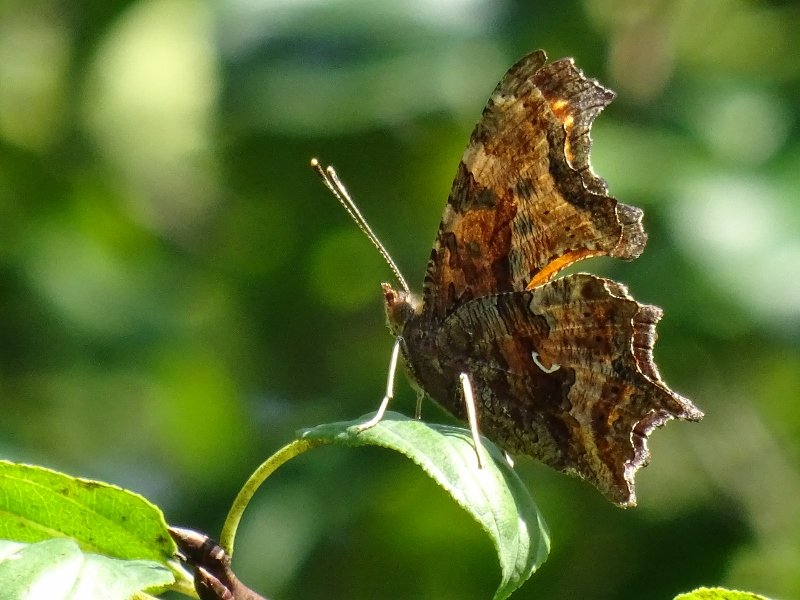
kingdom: Animalia
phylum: Arthropoda
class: Insecta
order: Lepidoptera
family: Nymphalidae
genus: Polygonia
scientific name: Polygonia comma
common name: Eastern Comma
